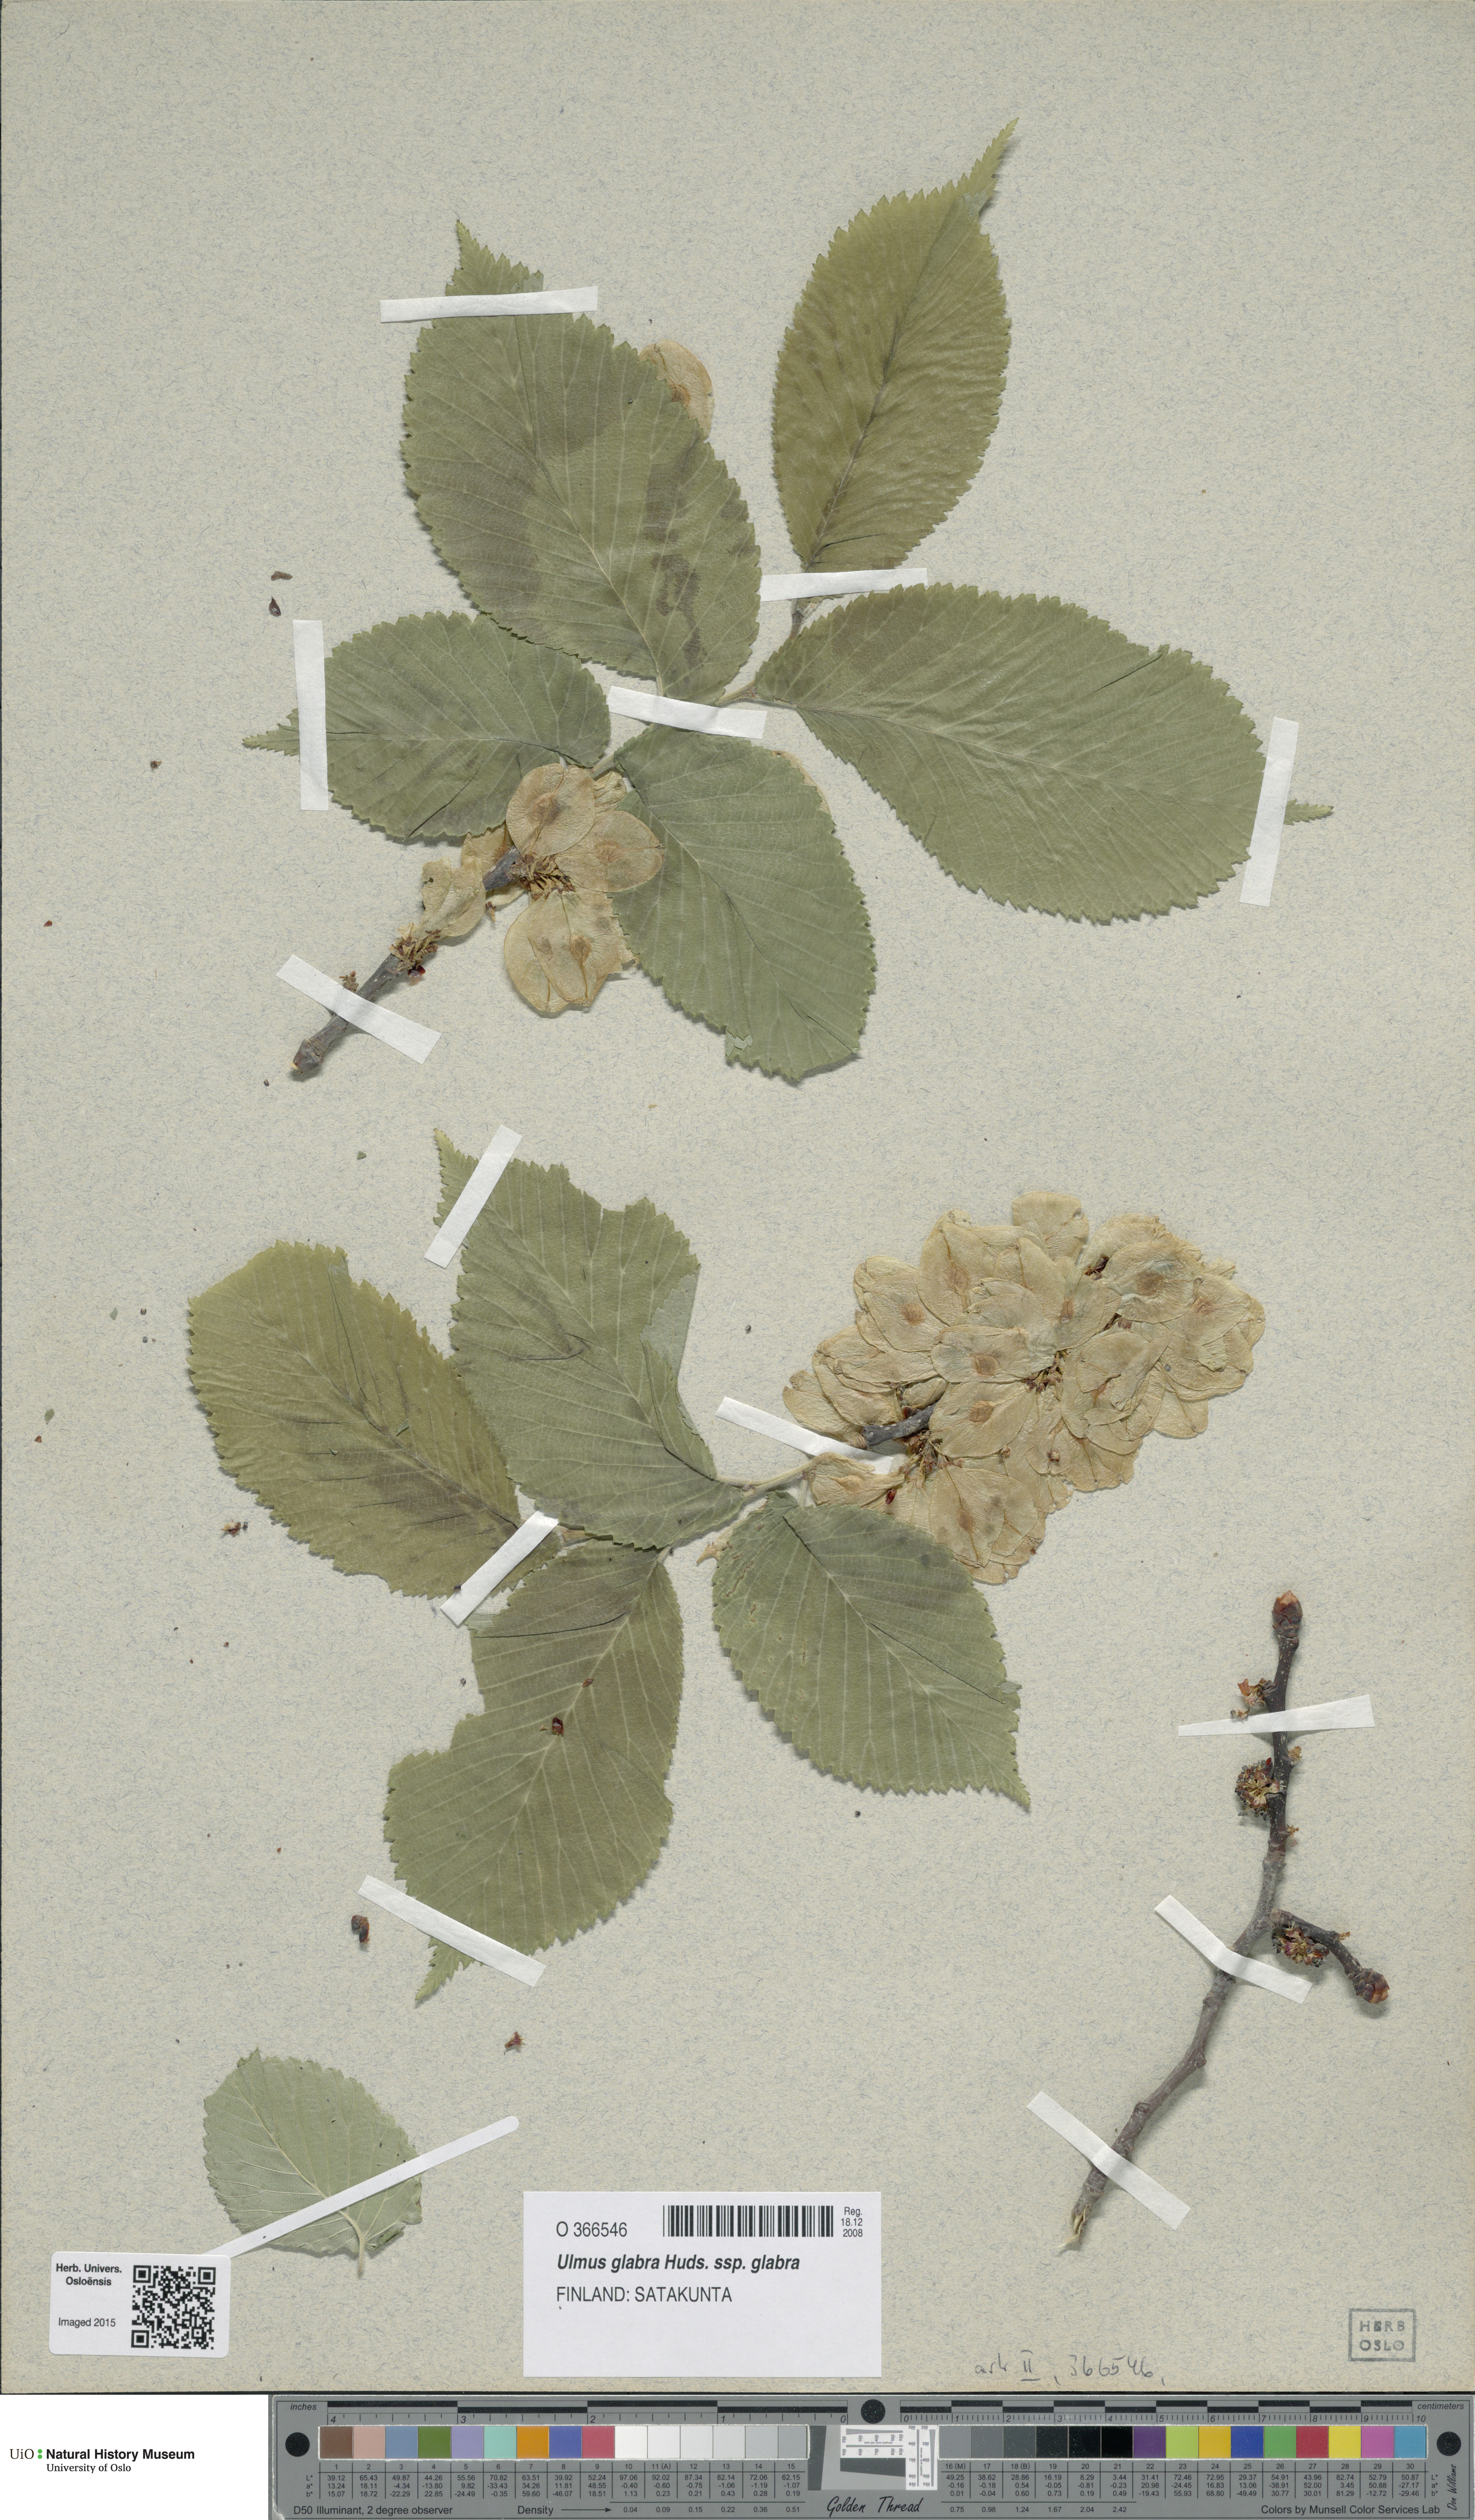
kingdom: Plantae
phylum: Tracheophyta
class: Magnoliopsida
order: Rosales
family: Ulmaceae
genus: Ulmus
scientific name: Ulmus glabra
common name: Wych elm
